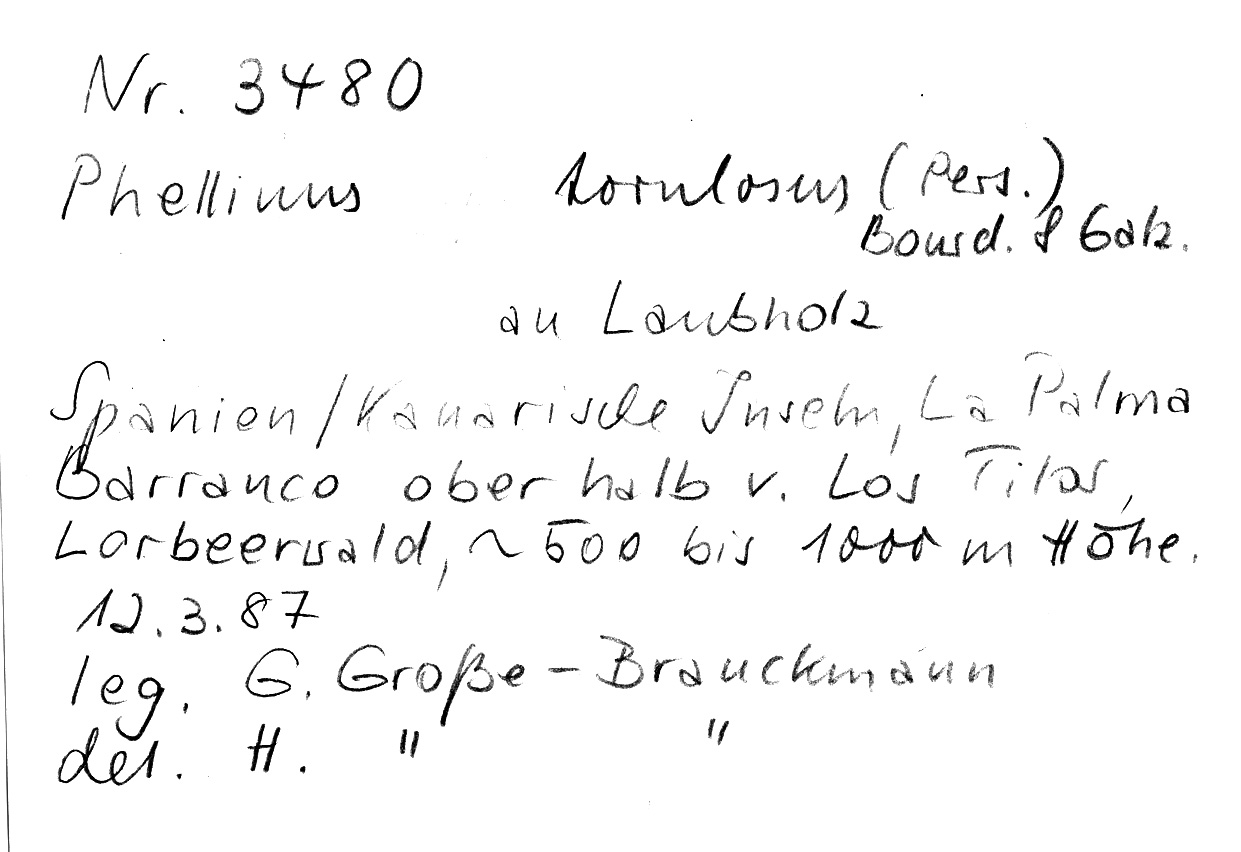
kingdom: Fungi
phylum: Basidiomycota
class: Agaricomycetes
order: Hymenochaetales
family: Hymenochaetaceae
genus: Fuscoporia
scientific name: Fuscoporia torulosa
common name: Tufted bracket
